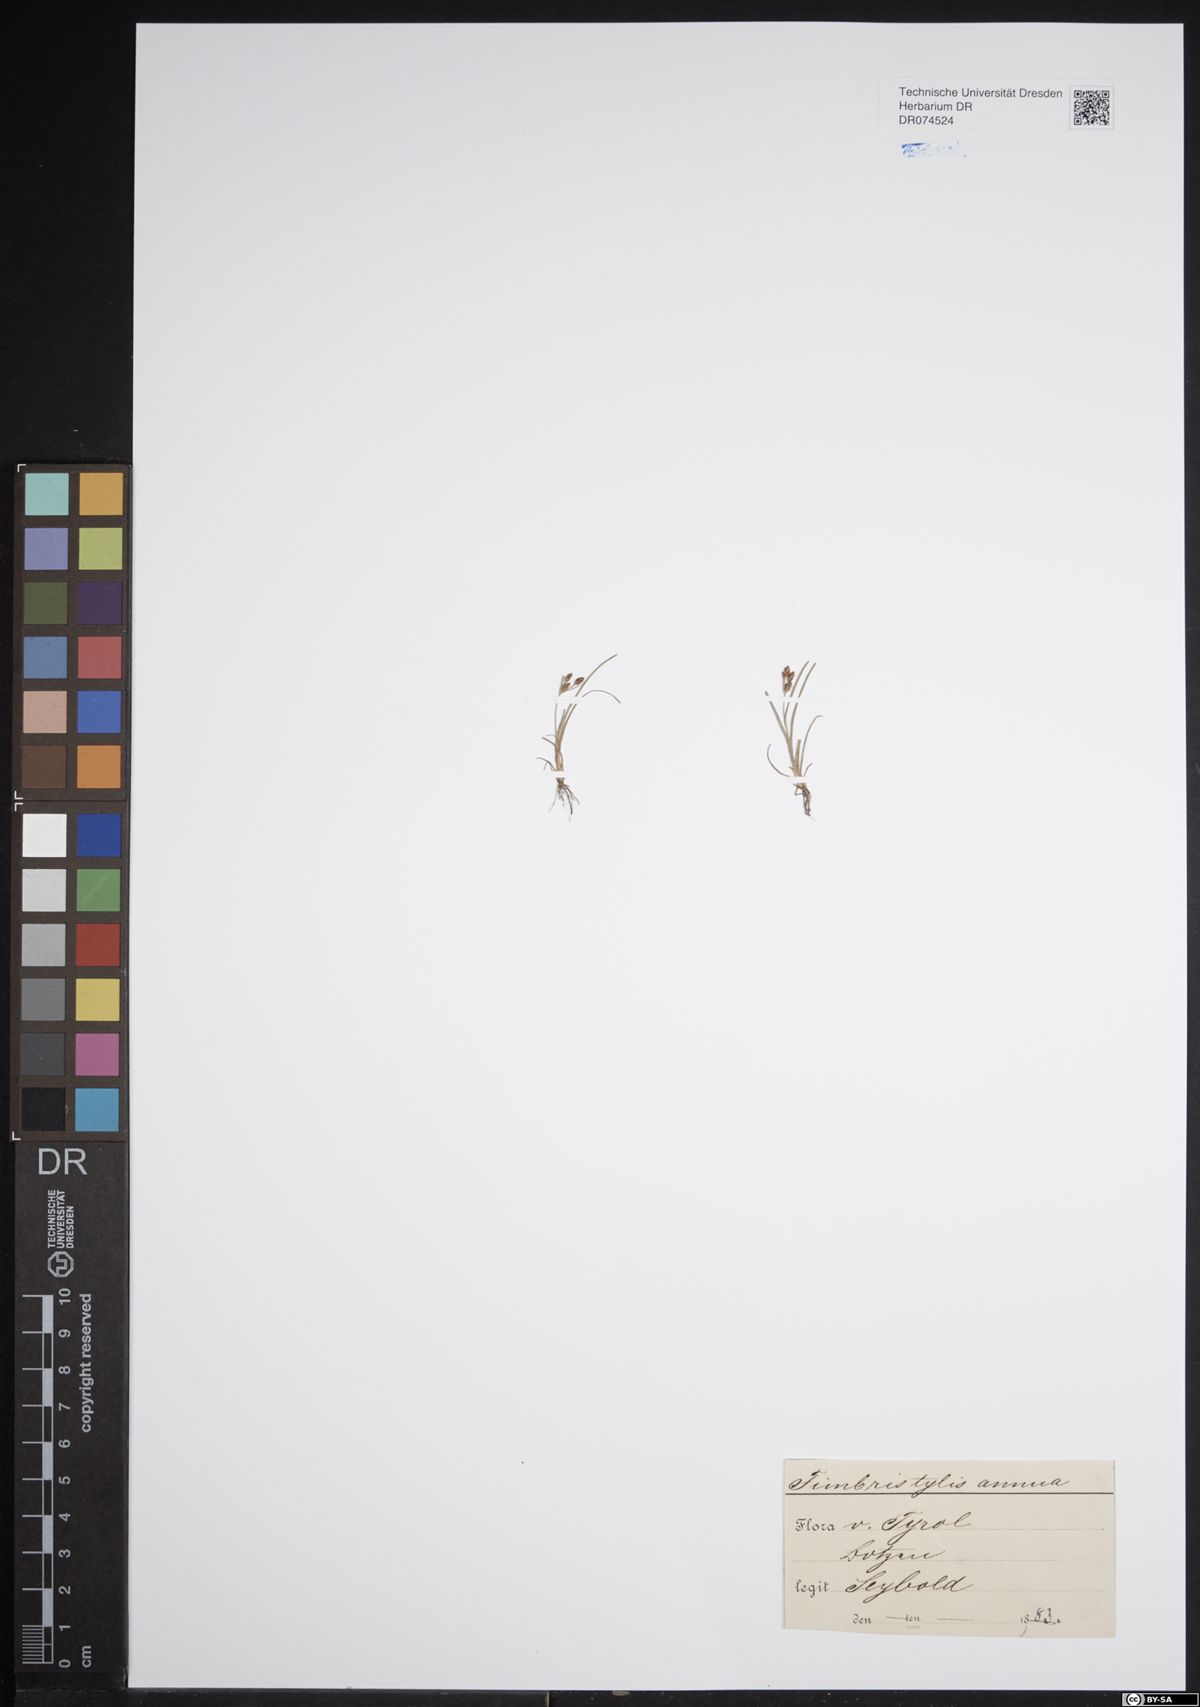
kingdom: Plantae
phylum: Tracheophyta
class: Liliopsida
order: Poales
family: Cyperaceae
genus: Fimbristylis
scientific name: Fimbristylis dichotoma
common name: Forked fimbry
